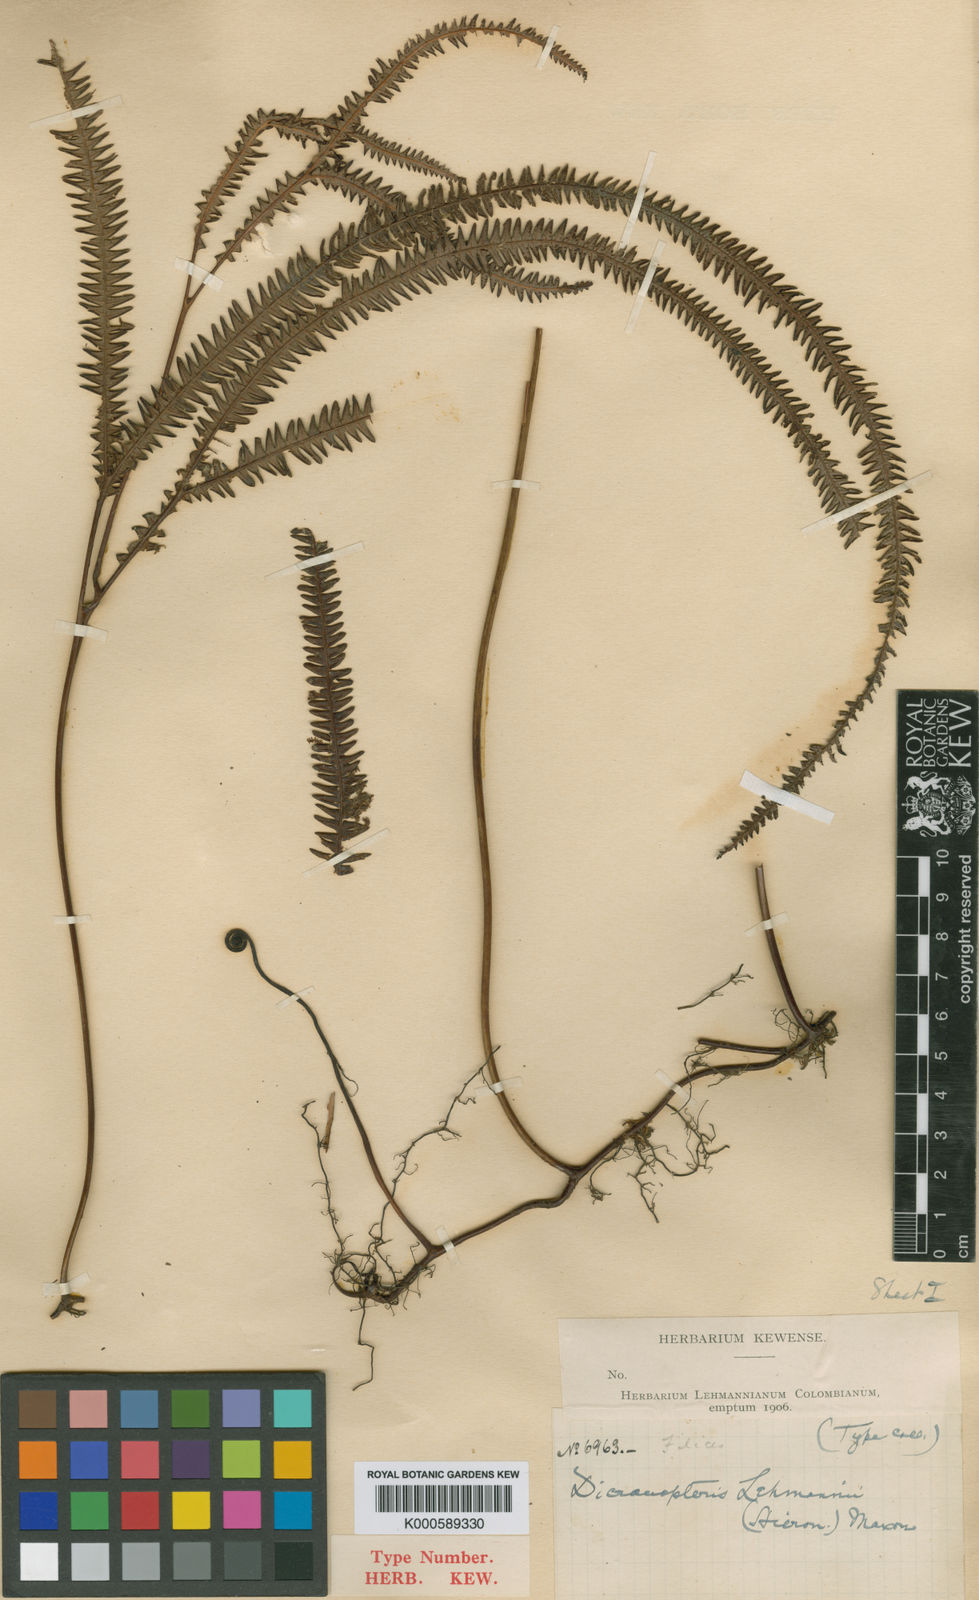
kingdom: Plantae
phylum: Tracheophyta
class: Polypodiopsida
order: Gleicheniales
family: Gleicheniaceae
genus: Sticherus
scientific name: Sticherus hypoleucus
